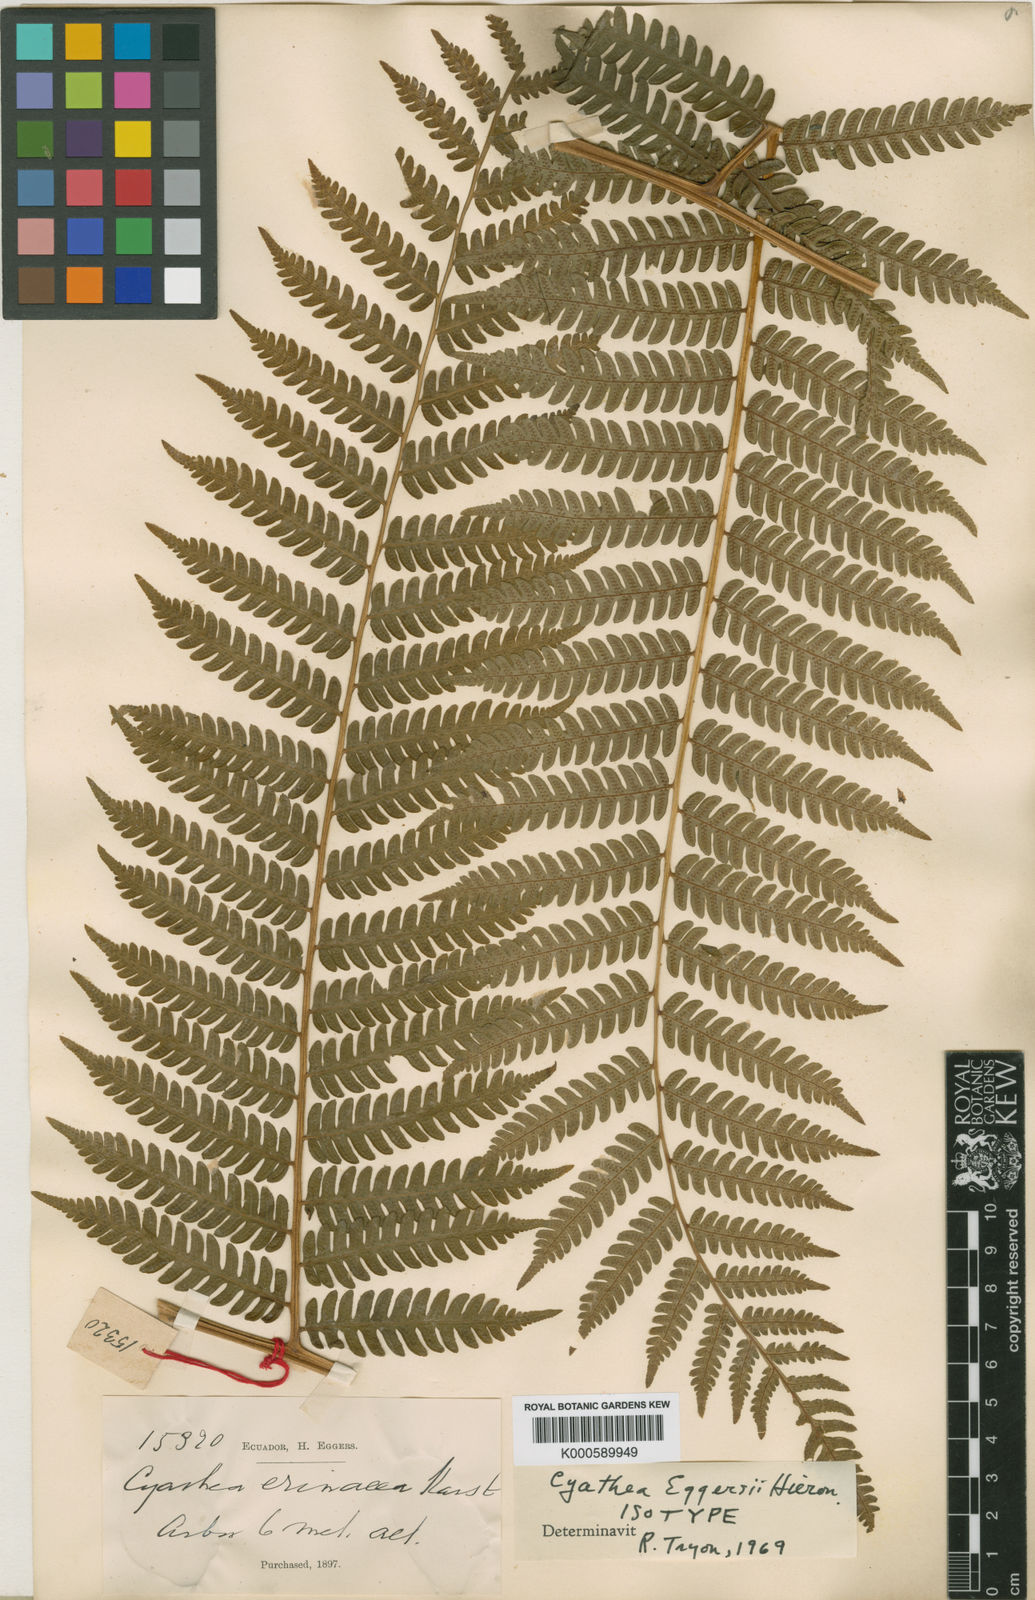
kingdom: Plantae
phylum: Tracheophyta
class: Polypodiopsida
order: Cyatheales
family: Cyatheaceae
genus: Cyathea
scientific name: Cyathea eggersii
